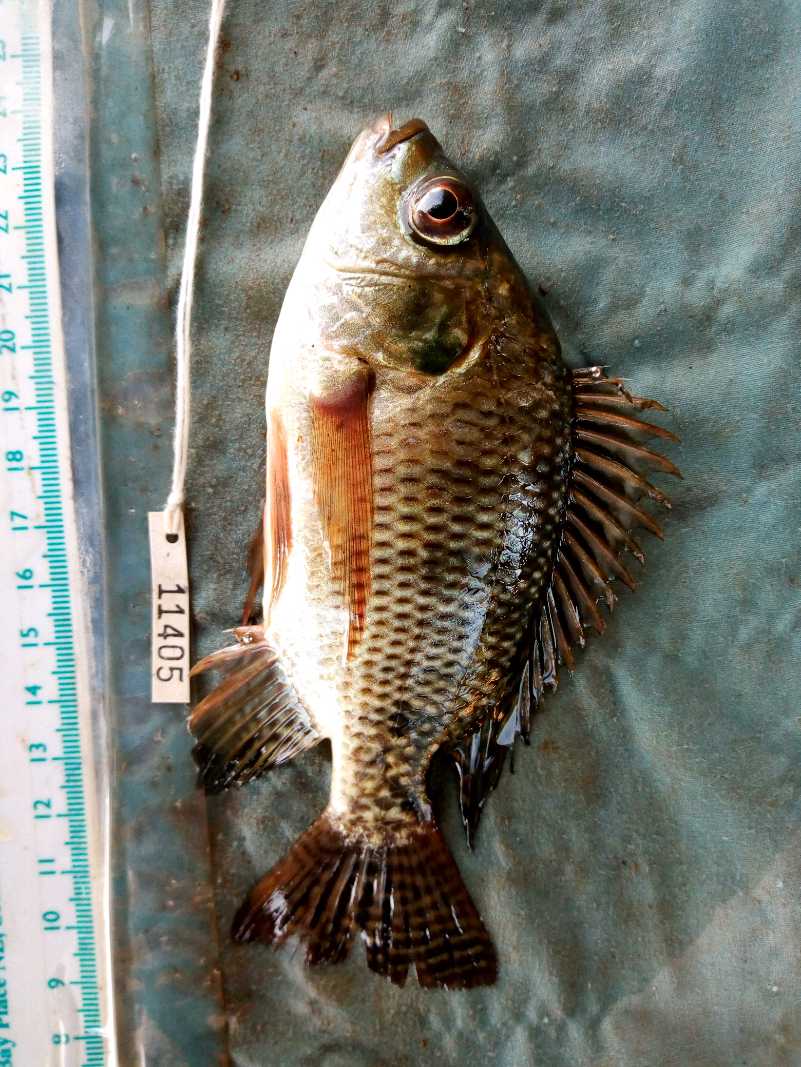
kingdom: Animalia
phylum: Chordata
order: Perciformes
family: Cichlidae
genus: Oreochromis
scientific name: Oreochromis spilurus
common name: Sabaki tilapia
